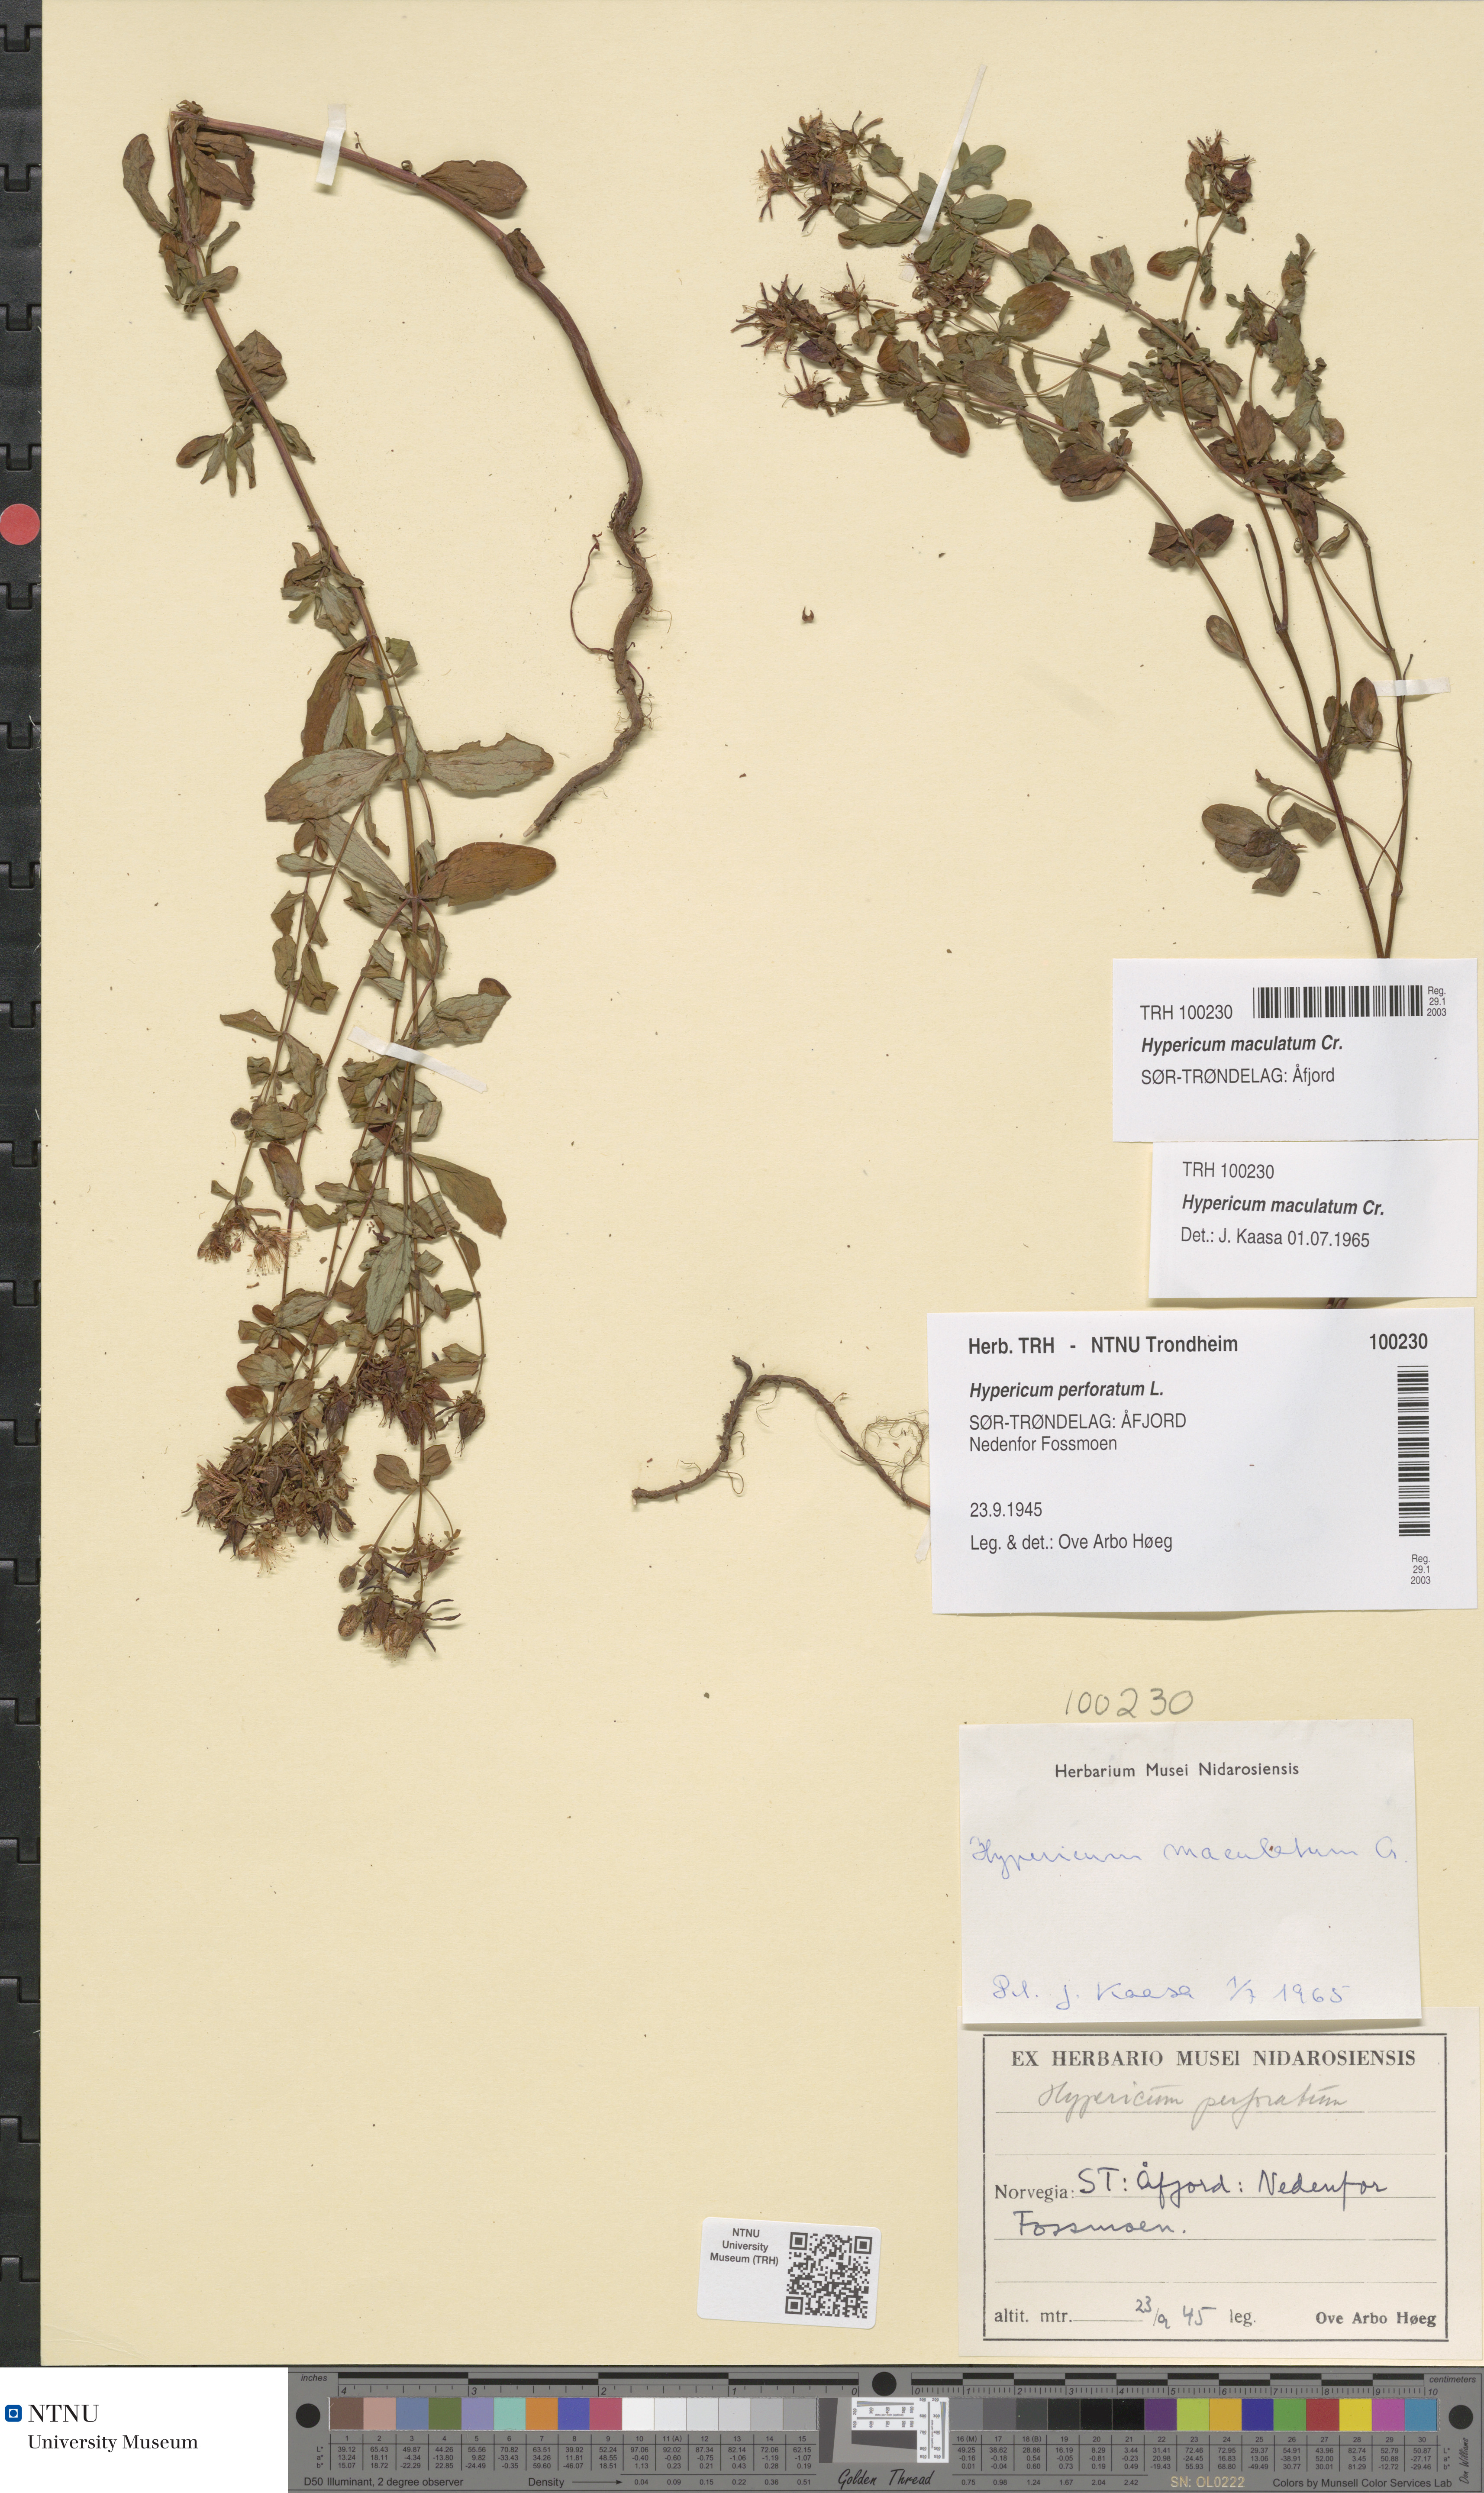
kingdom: Plantae
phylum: Tracheophyta
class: Magnoliopsida
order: Malpighiales
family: Hypericaceae
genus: Hypericum
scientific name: Hypericum maculatum
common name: Imperforate st. john's-wort
